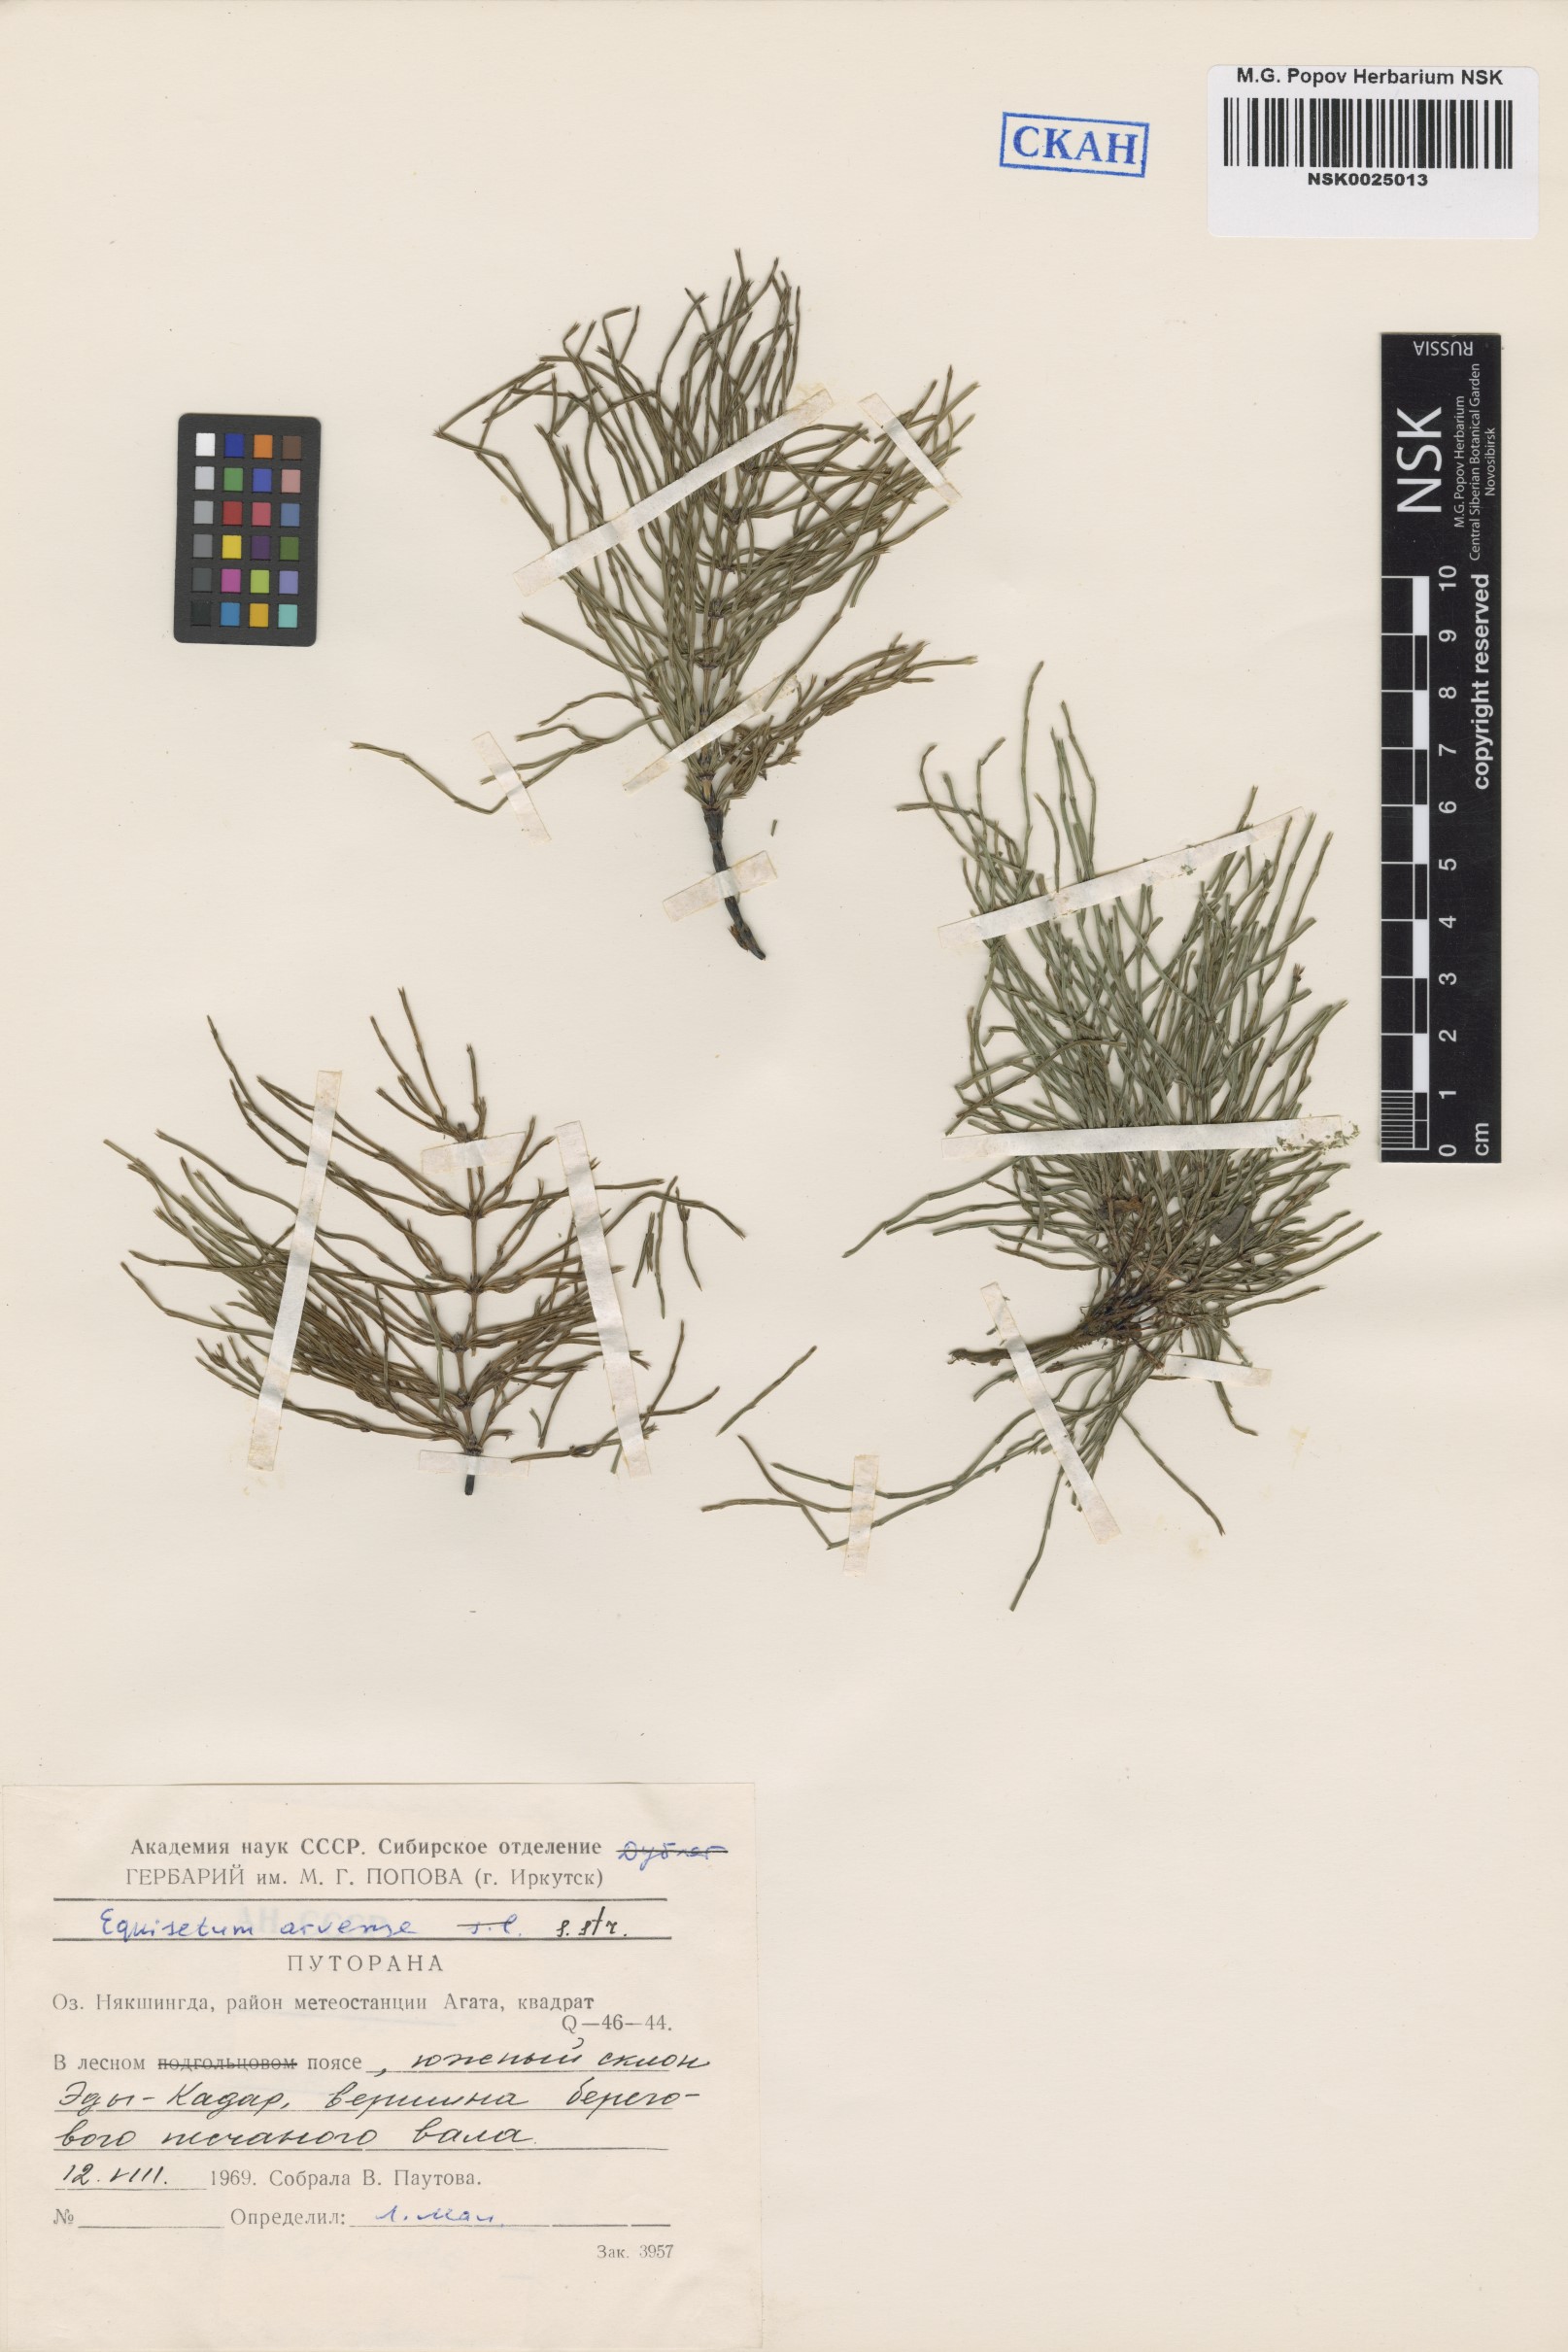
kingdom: Plantae
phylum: Tracheophyta
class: Polypodiopsida
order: Equisetales
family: Equisetaceae
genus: Equisetum
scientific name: Equisetum arvense
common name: Field horsetail
